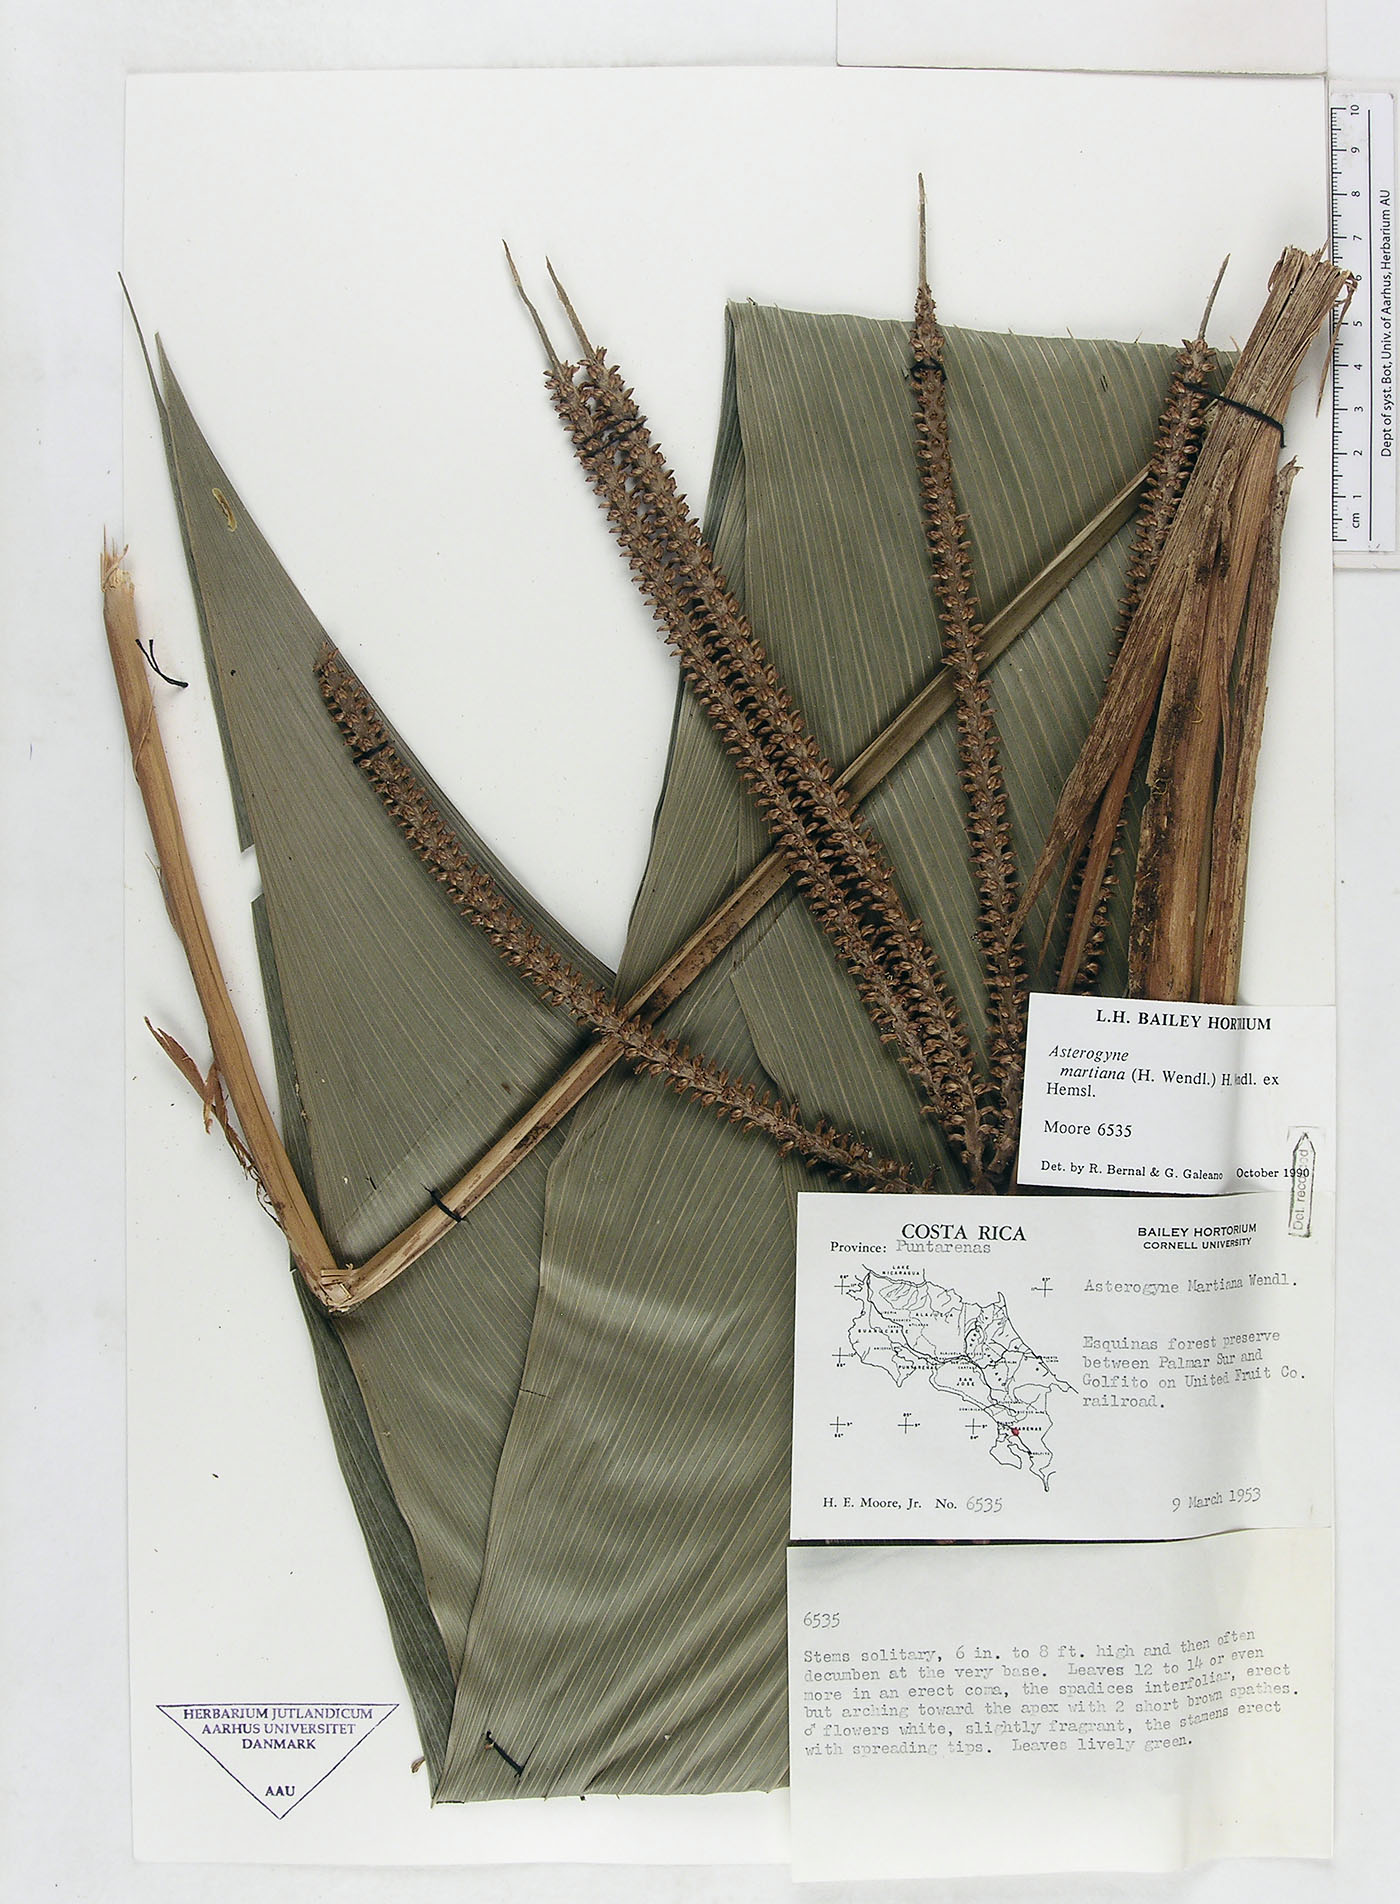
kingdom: Plantae
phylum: Tracheophyta
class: Liliopsida
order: Arecales
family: Arecaceae
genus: Asterogyne
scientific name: Asterogyne martiana
